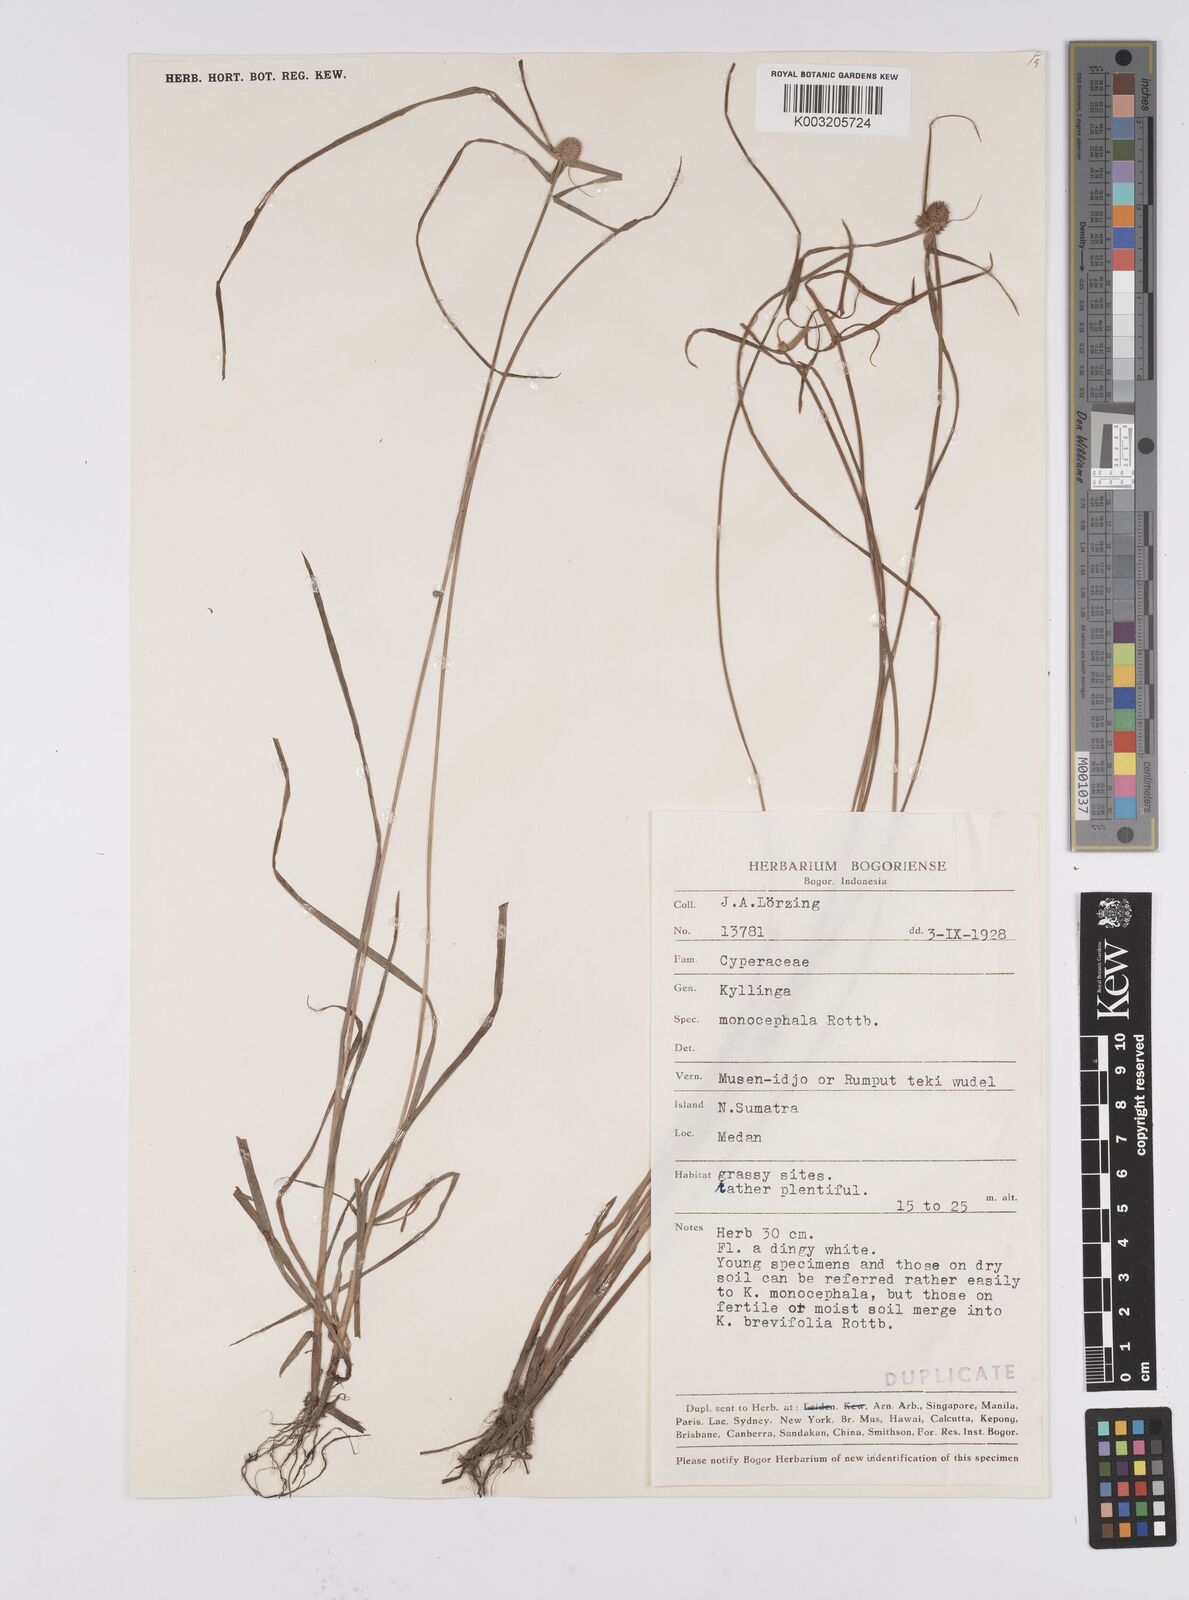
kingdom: Plantae
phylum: Tracheophyta
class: Liliopsida
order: Poales
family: Cyperaceae
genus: Cyperus
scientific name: Cyperus nemoralis
